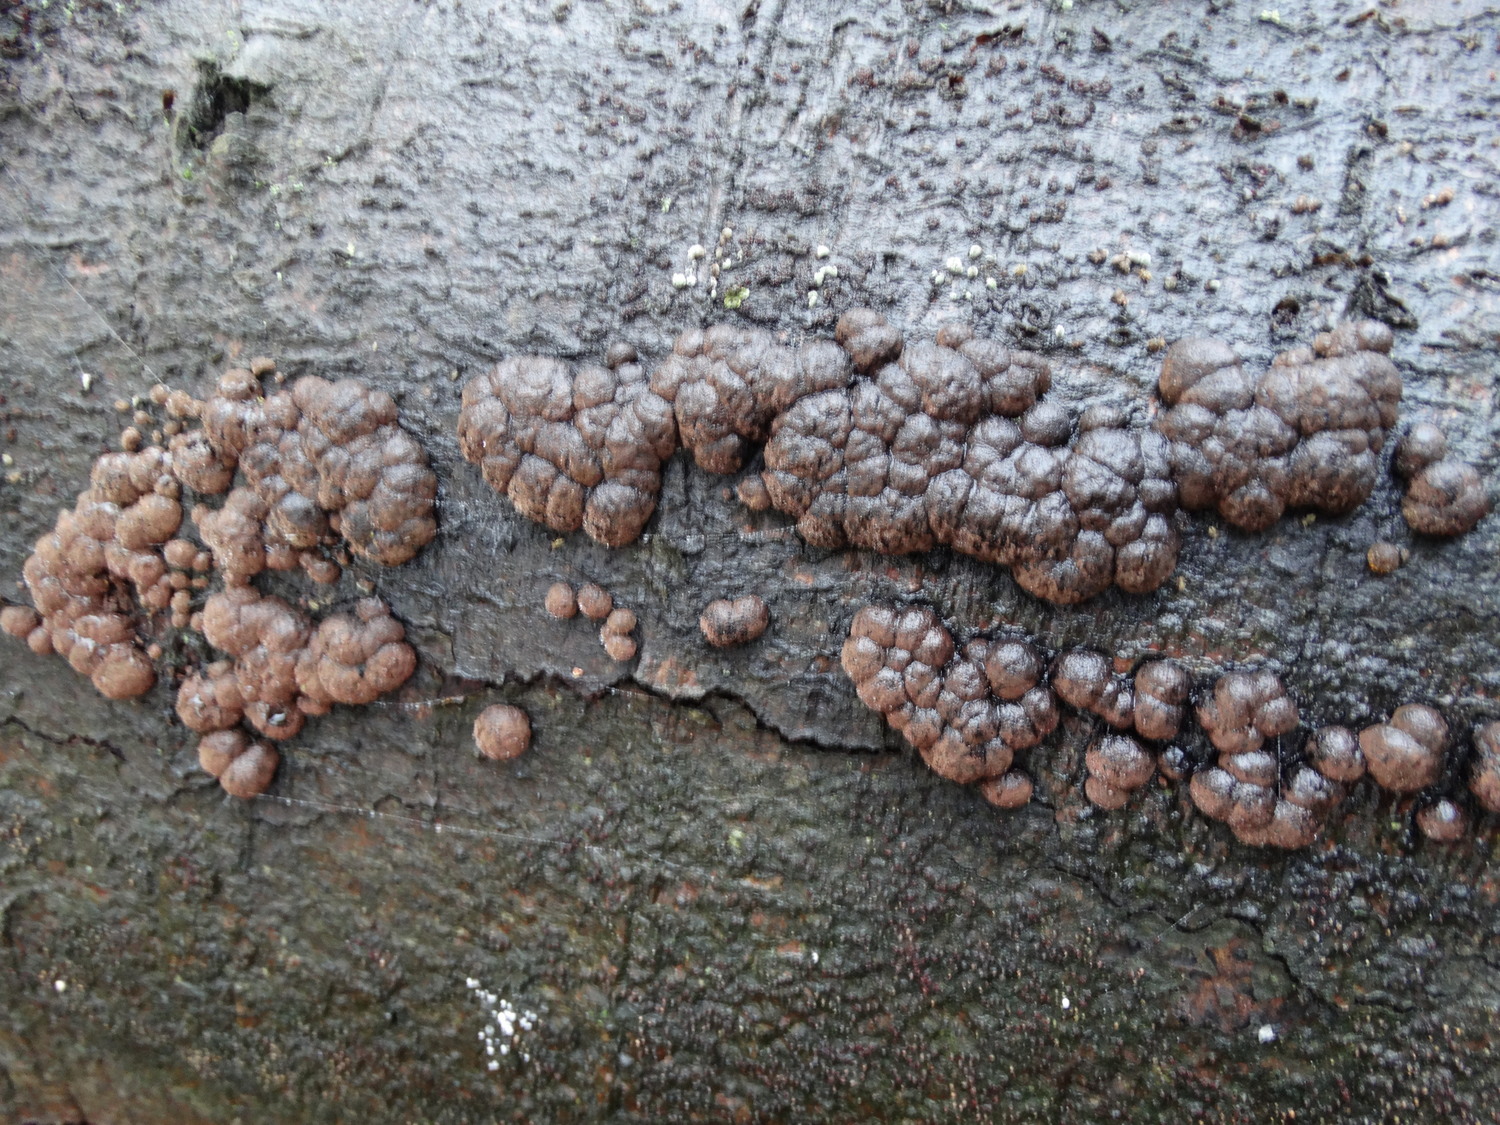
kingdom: Fungi
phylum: Ascomycota
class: Sordariomycetes
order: Xylariales
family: Hypoxylaceae
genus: Hypoxylon
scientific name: Hypoxylon fragiforme
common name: kuljordbær
